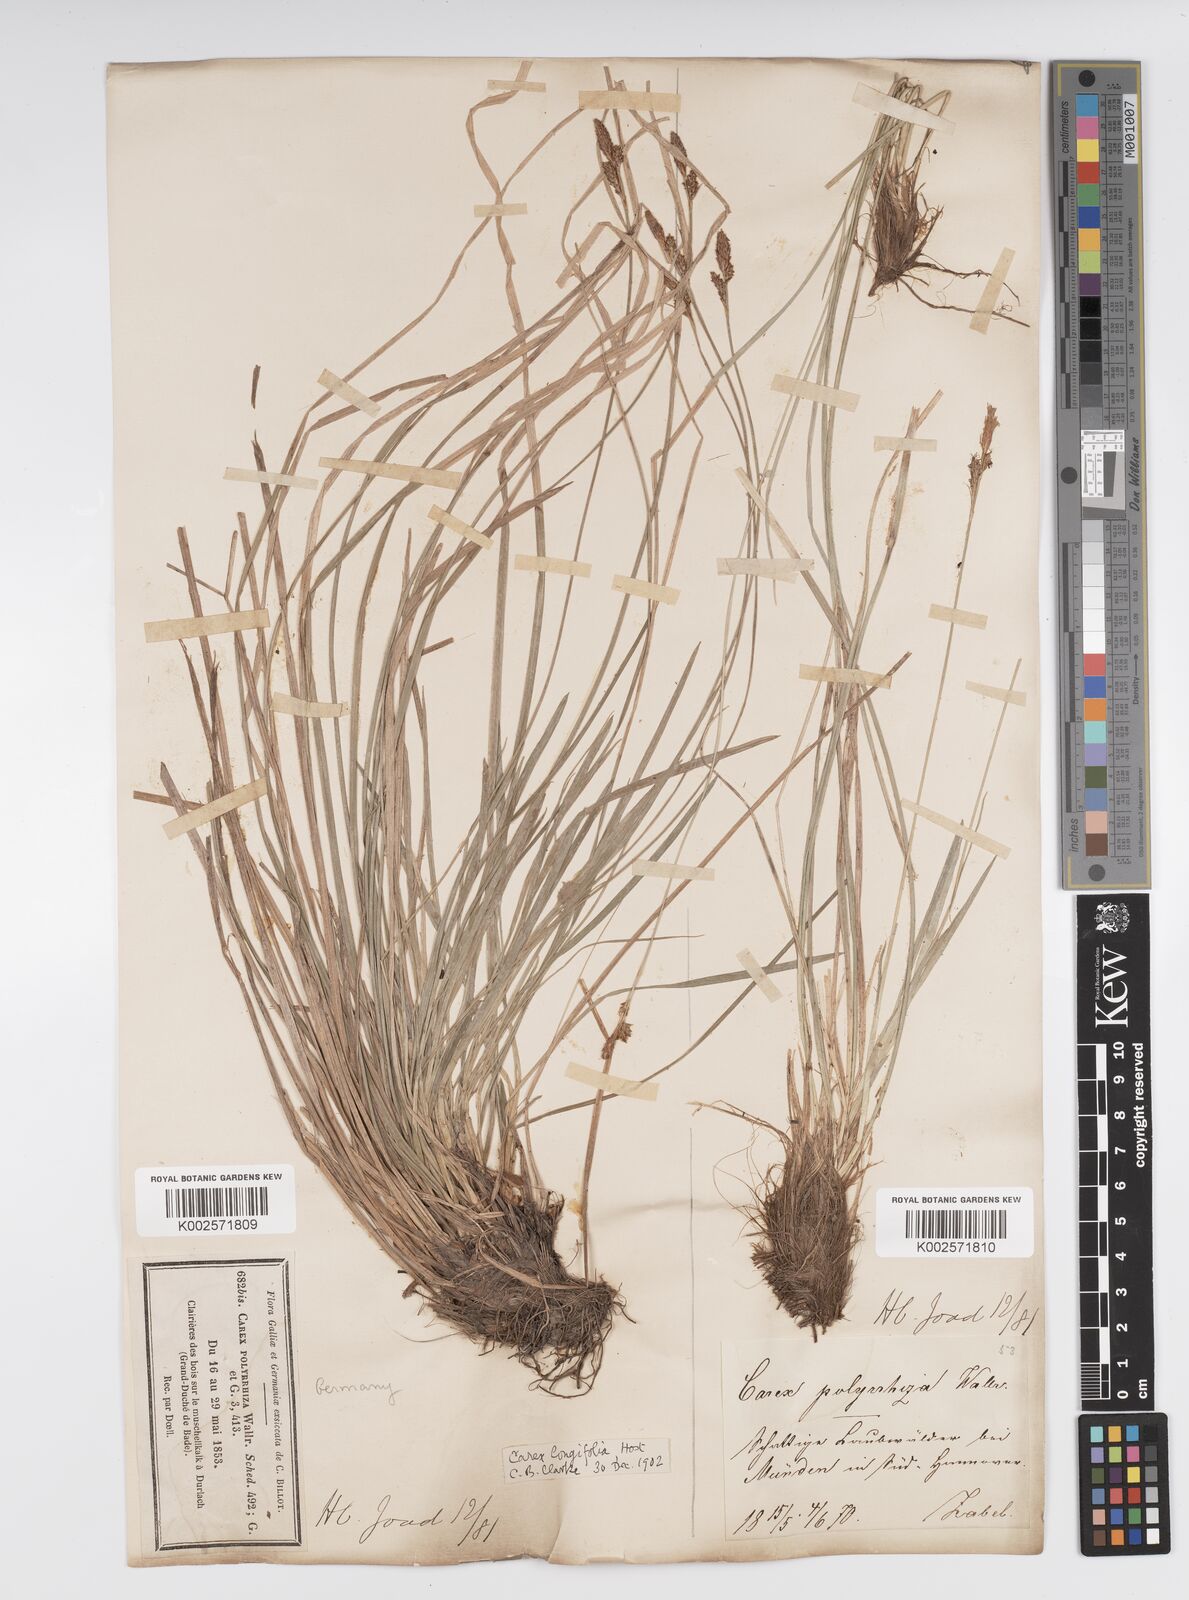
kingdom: Plantae
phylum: Tracheophyta
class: Liliopsida
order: Poales
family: Cyperaceae
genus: Carex
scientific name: Carex umbrosa
